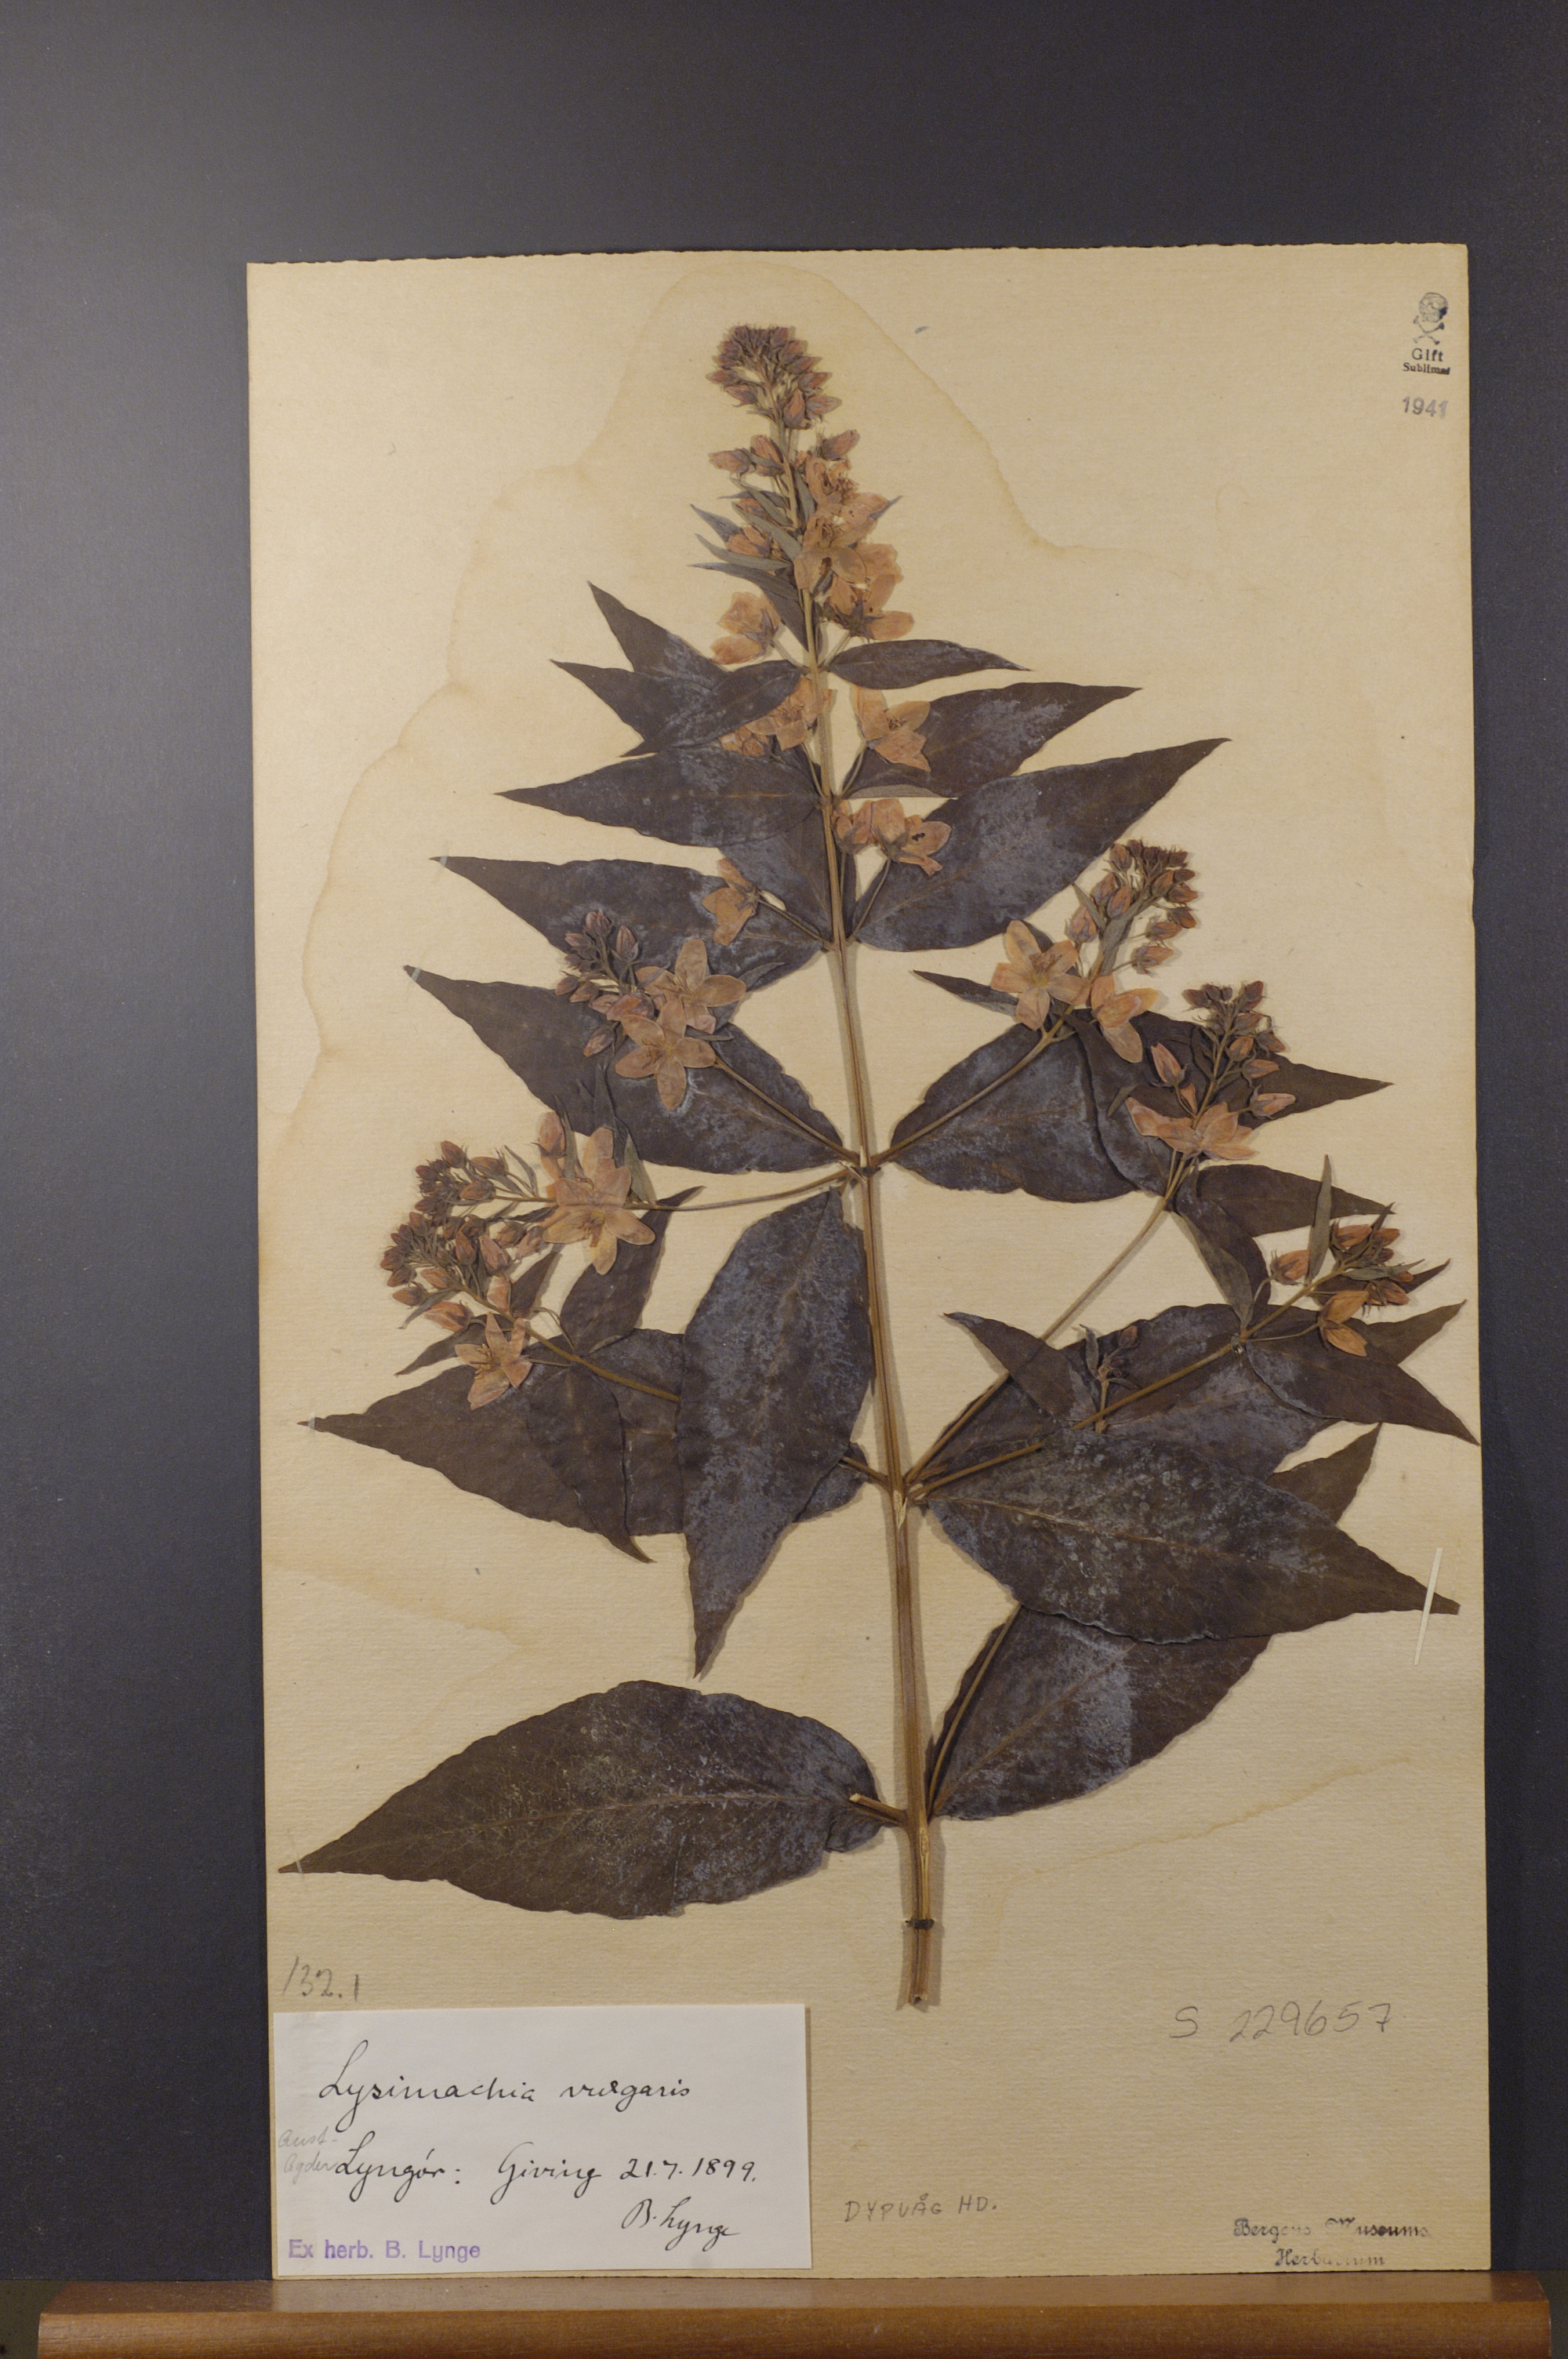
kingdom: Plantae
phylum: Tracheophyta
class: Magnoliopsida
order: Ericales
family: Primulaceae
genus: Lysimachia
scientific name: Lysimachia vulgaris
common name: Yellow loosestrife
